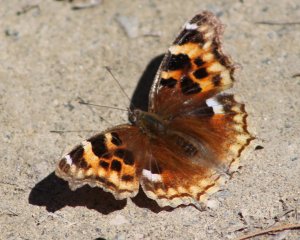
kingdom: Animalia
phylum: Arthropoda
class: Insecta
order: Lepidoptera
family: Nymphalidae
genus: Polygonia
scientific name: Polygonia vaualbum
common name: Compton Tortoiseshell
